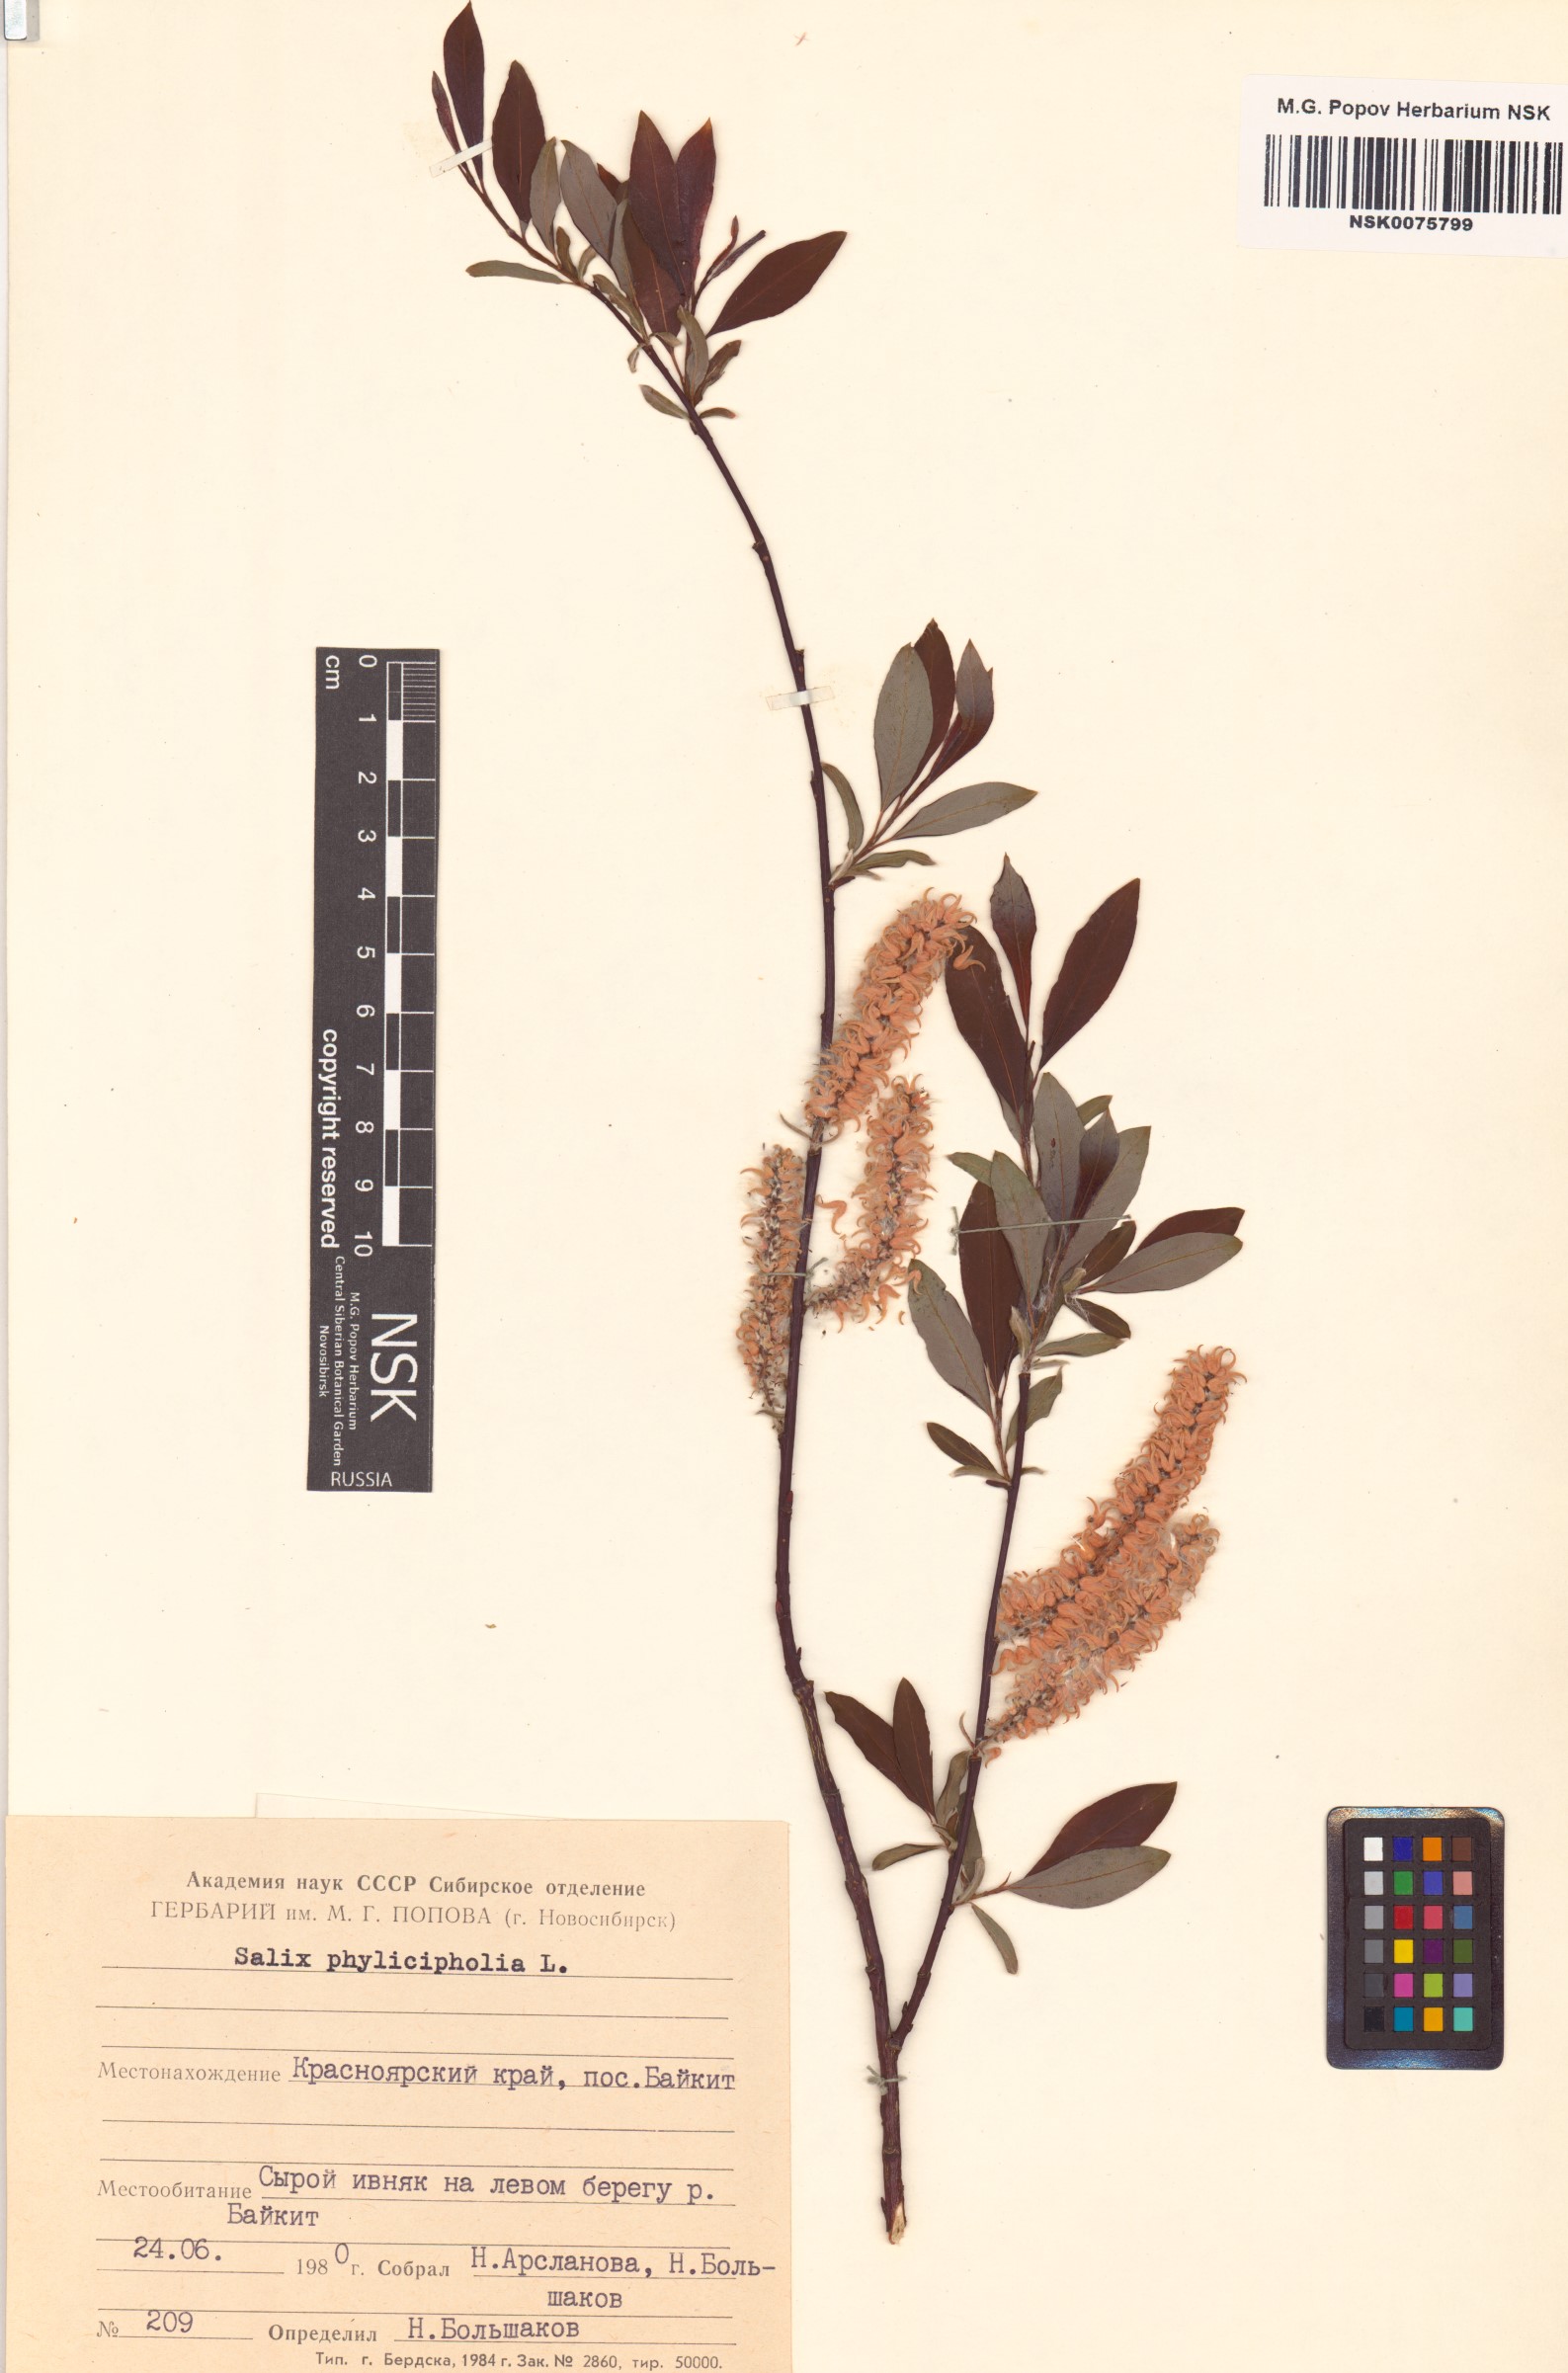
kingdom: Plantae
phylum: Tracheophyta
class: Magnoliopsida
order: Malpighiales
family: Salicaceae
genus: Salix
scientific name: Salix phylicifolia
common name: Tea-leaved willow
